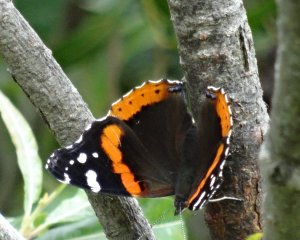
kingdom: Animalia
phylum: Arthropoda
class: Insecta
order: Lepidoptera
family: Nymphalidae
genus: Vanessa
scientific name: Vanessa atalanta
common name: Red Admiral
